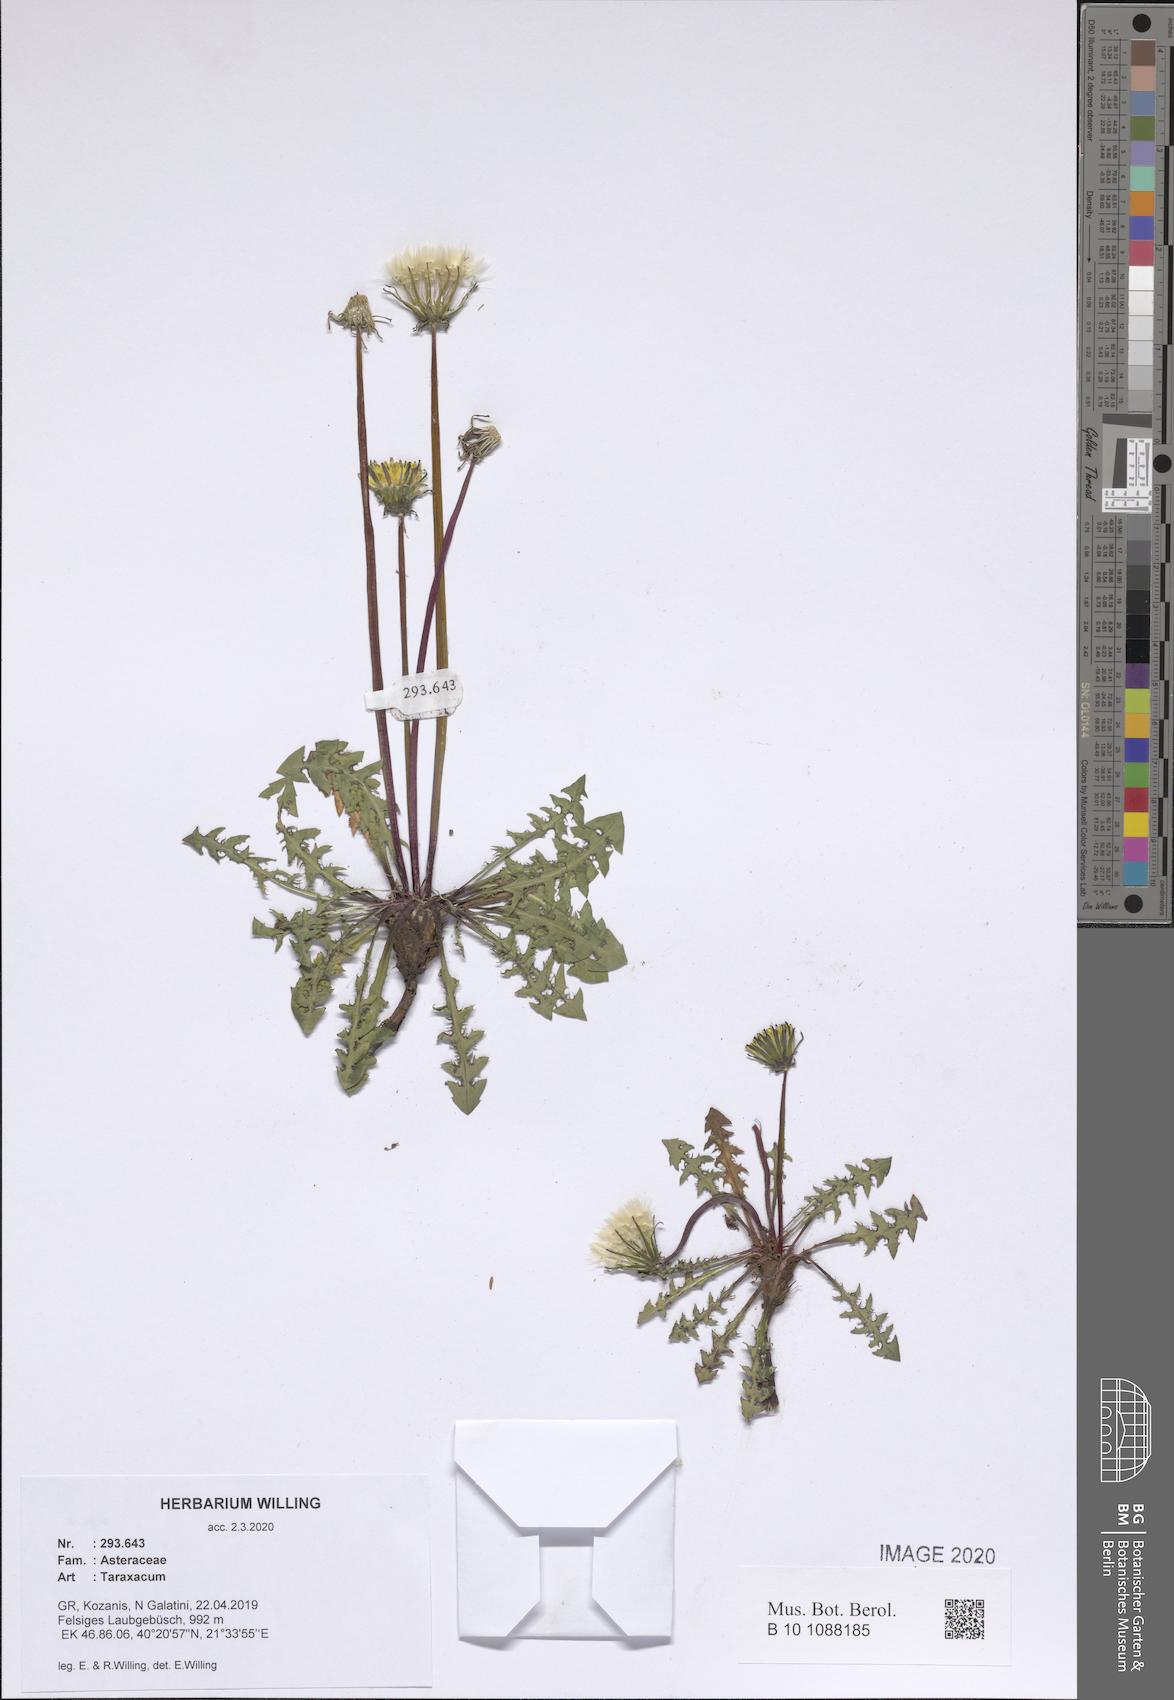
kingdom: Plantae
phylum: Tracheophyta
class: Magnoliopsida
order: Asterales
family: Asteraceae
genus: Taraxacum
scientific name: Taraxacum
